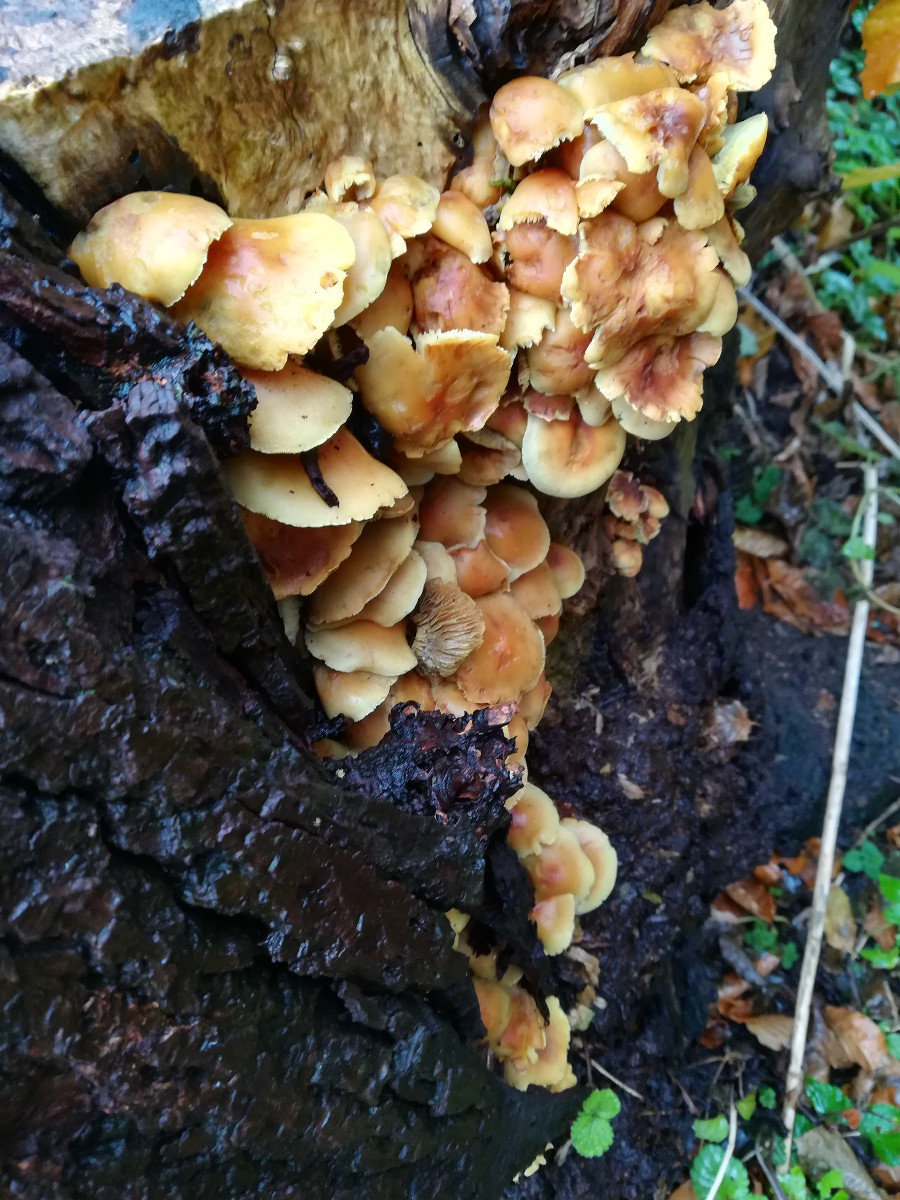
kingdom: Fungi
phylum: Basidiomycota
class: Agaricomycetes
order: Agaricales
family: Strophariaceae
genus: Hypholoma
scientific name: Hypholoma fasciculare
